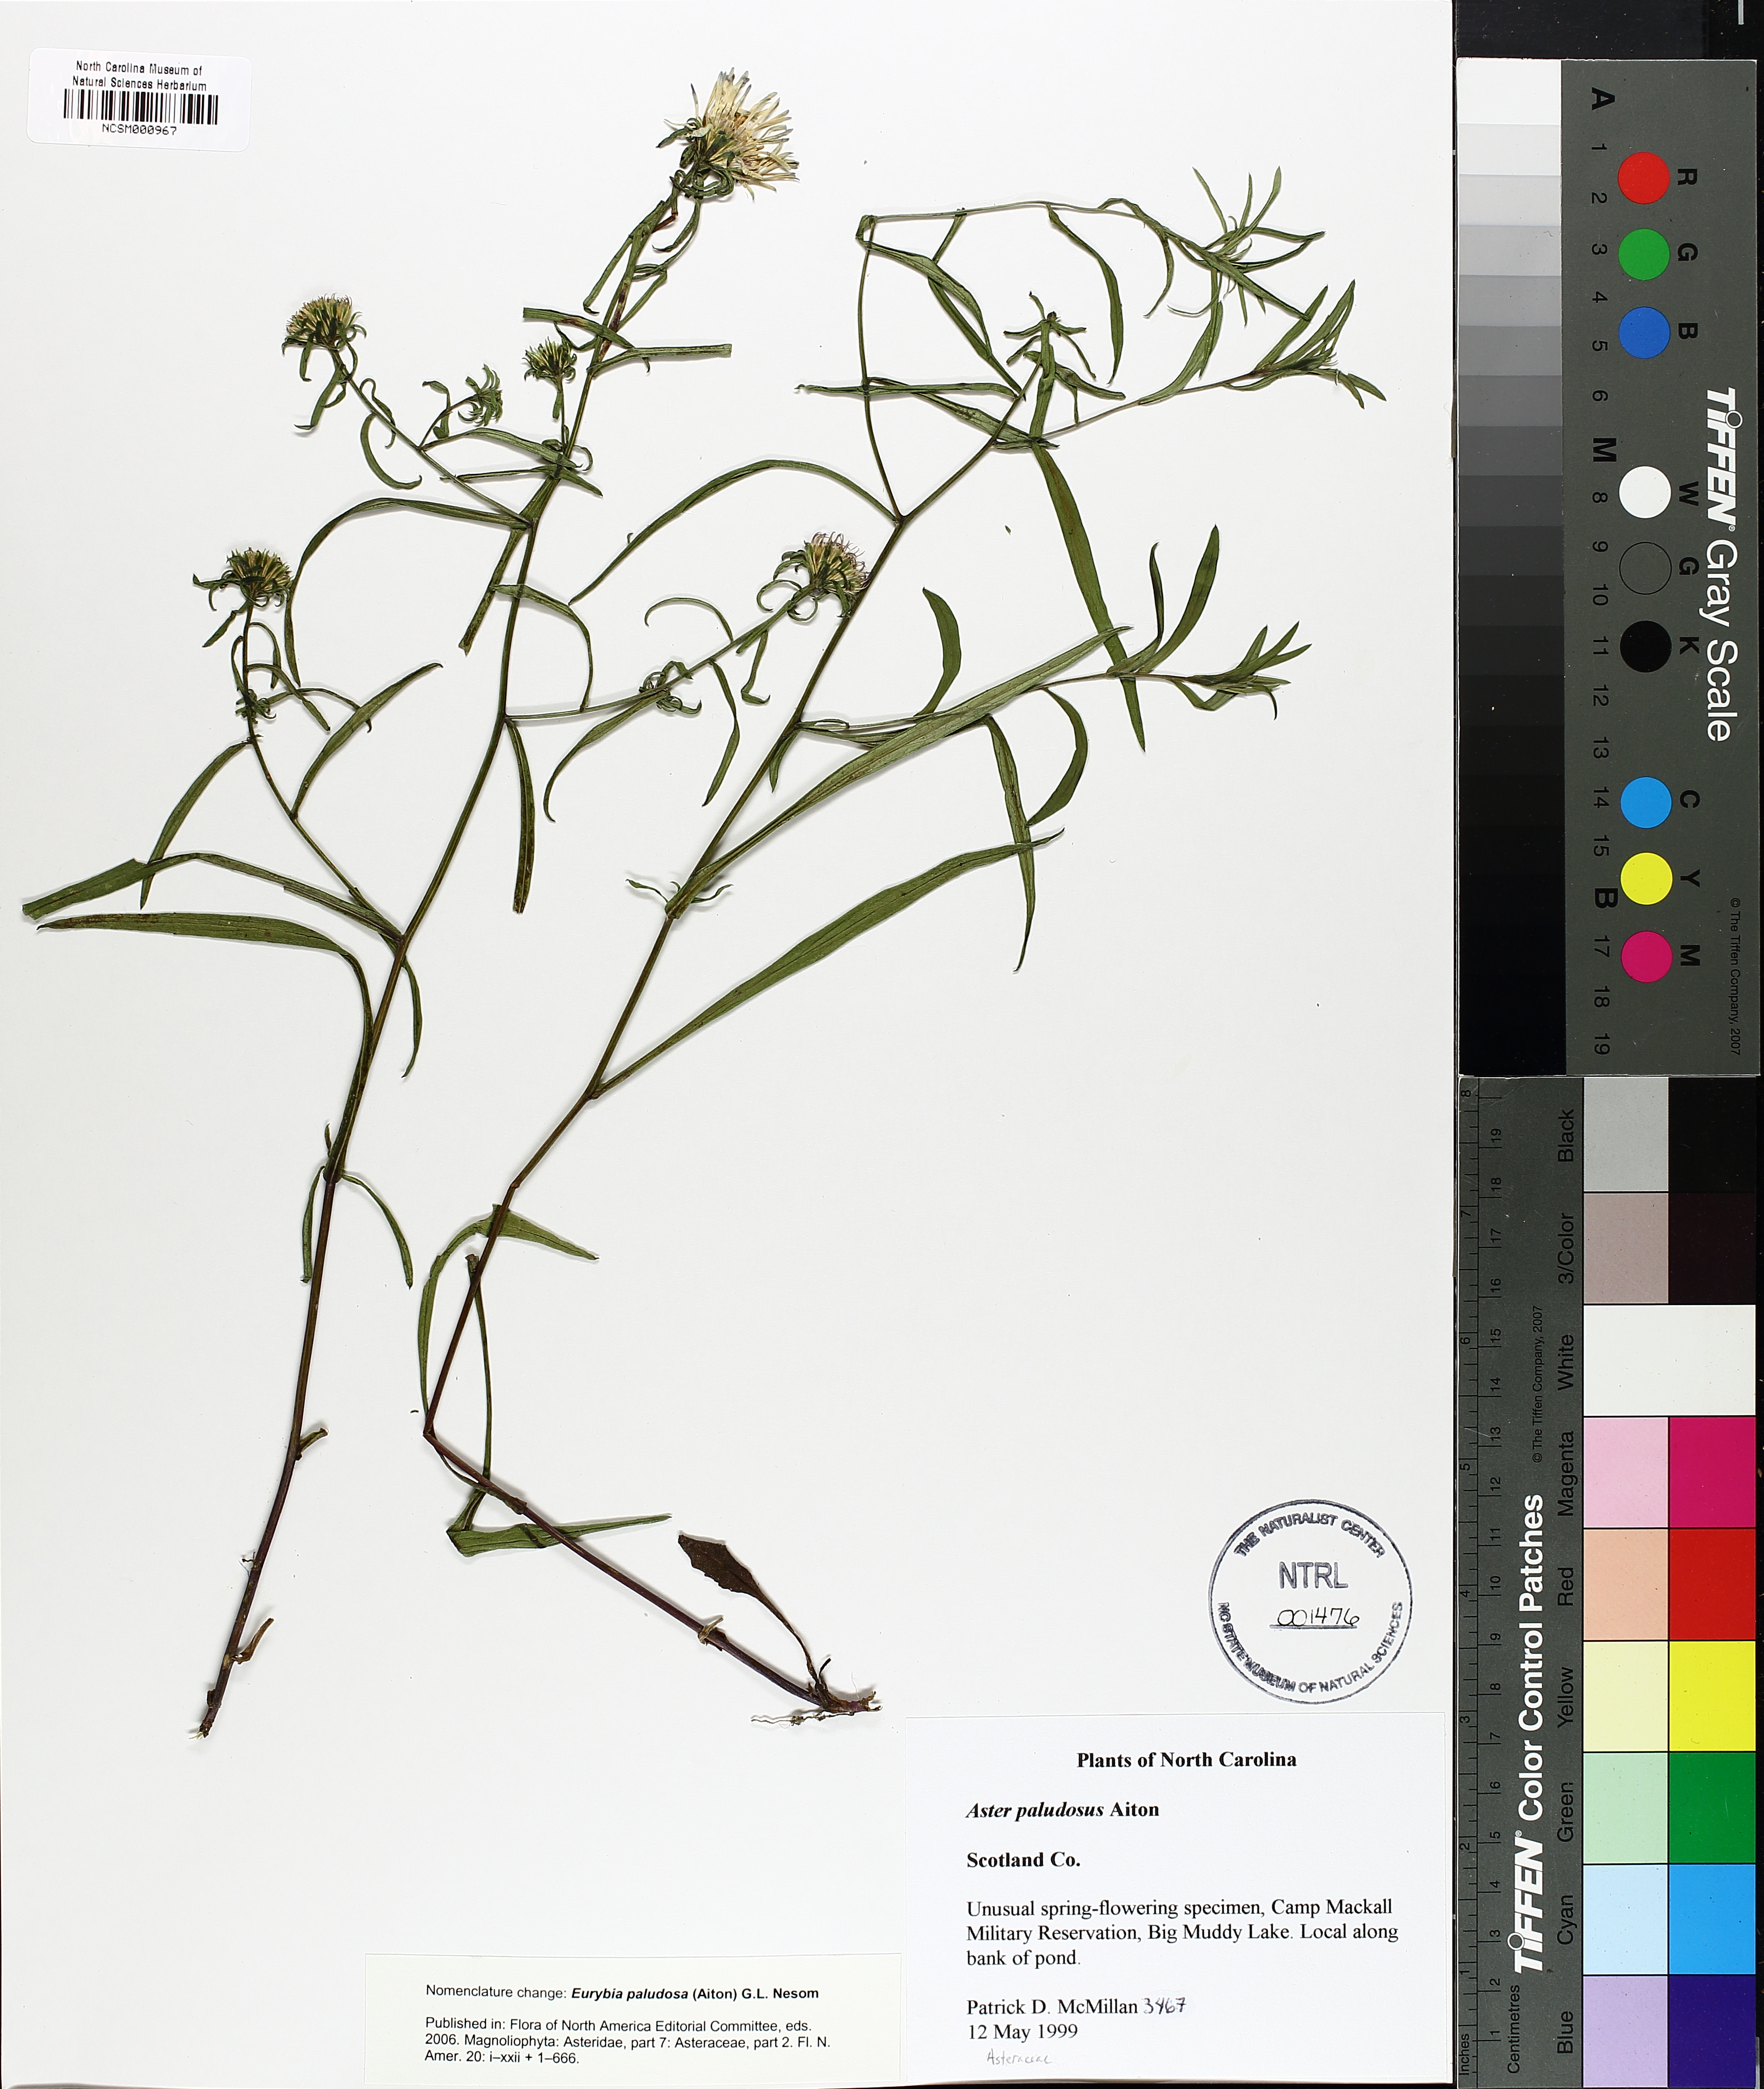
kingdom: Plantae
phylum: Tracheophyta
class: Magnoliopsida
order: Asterales
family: Asteraceae
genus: Eurybia
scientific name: Eurybia paludosa
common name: Southern swamp aster
